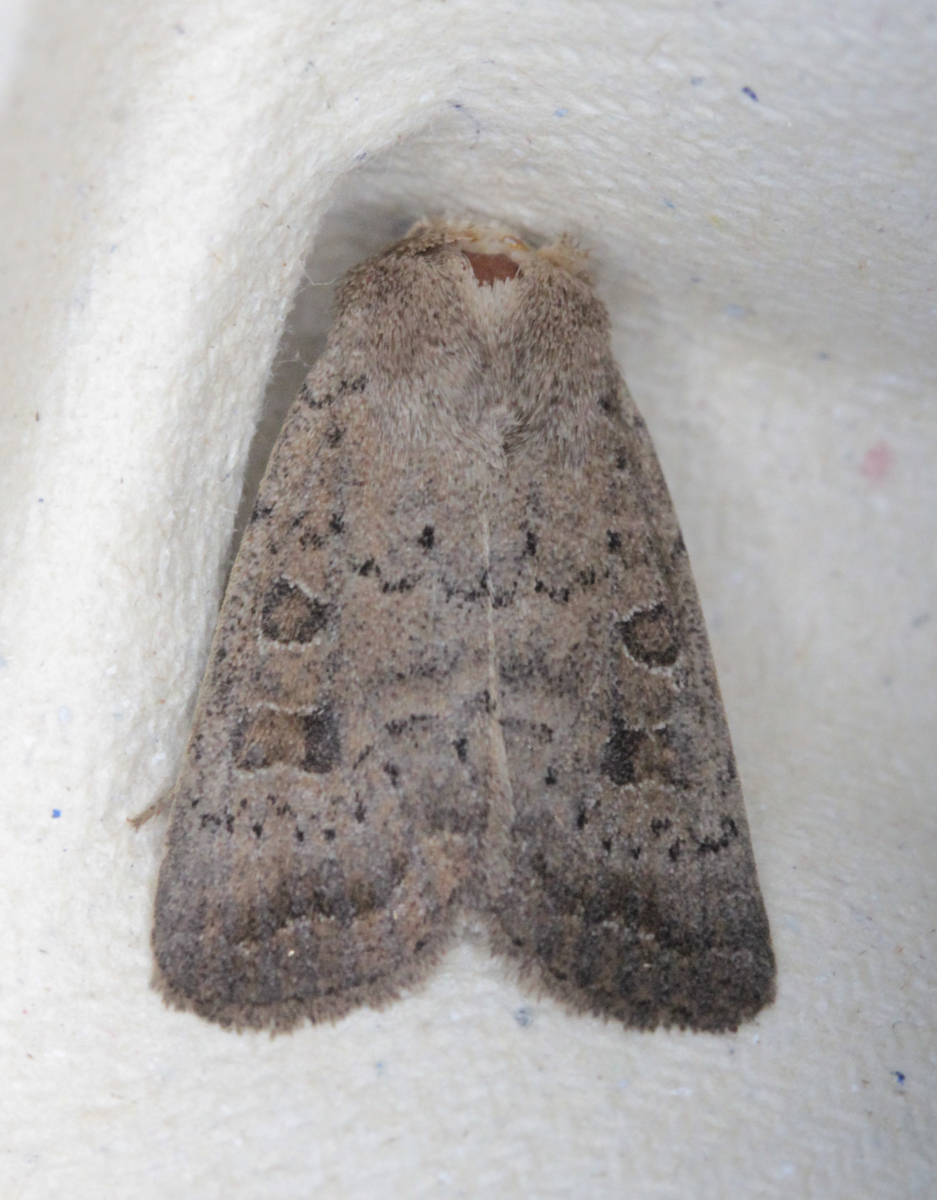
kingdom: Animalia
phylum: Arthropoda
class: Insecta
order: Lepidoptera
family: Noctuidae
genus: Hoplodrina
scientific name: Hoplodrina octogenaria
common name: Uncertain
